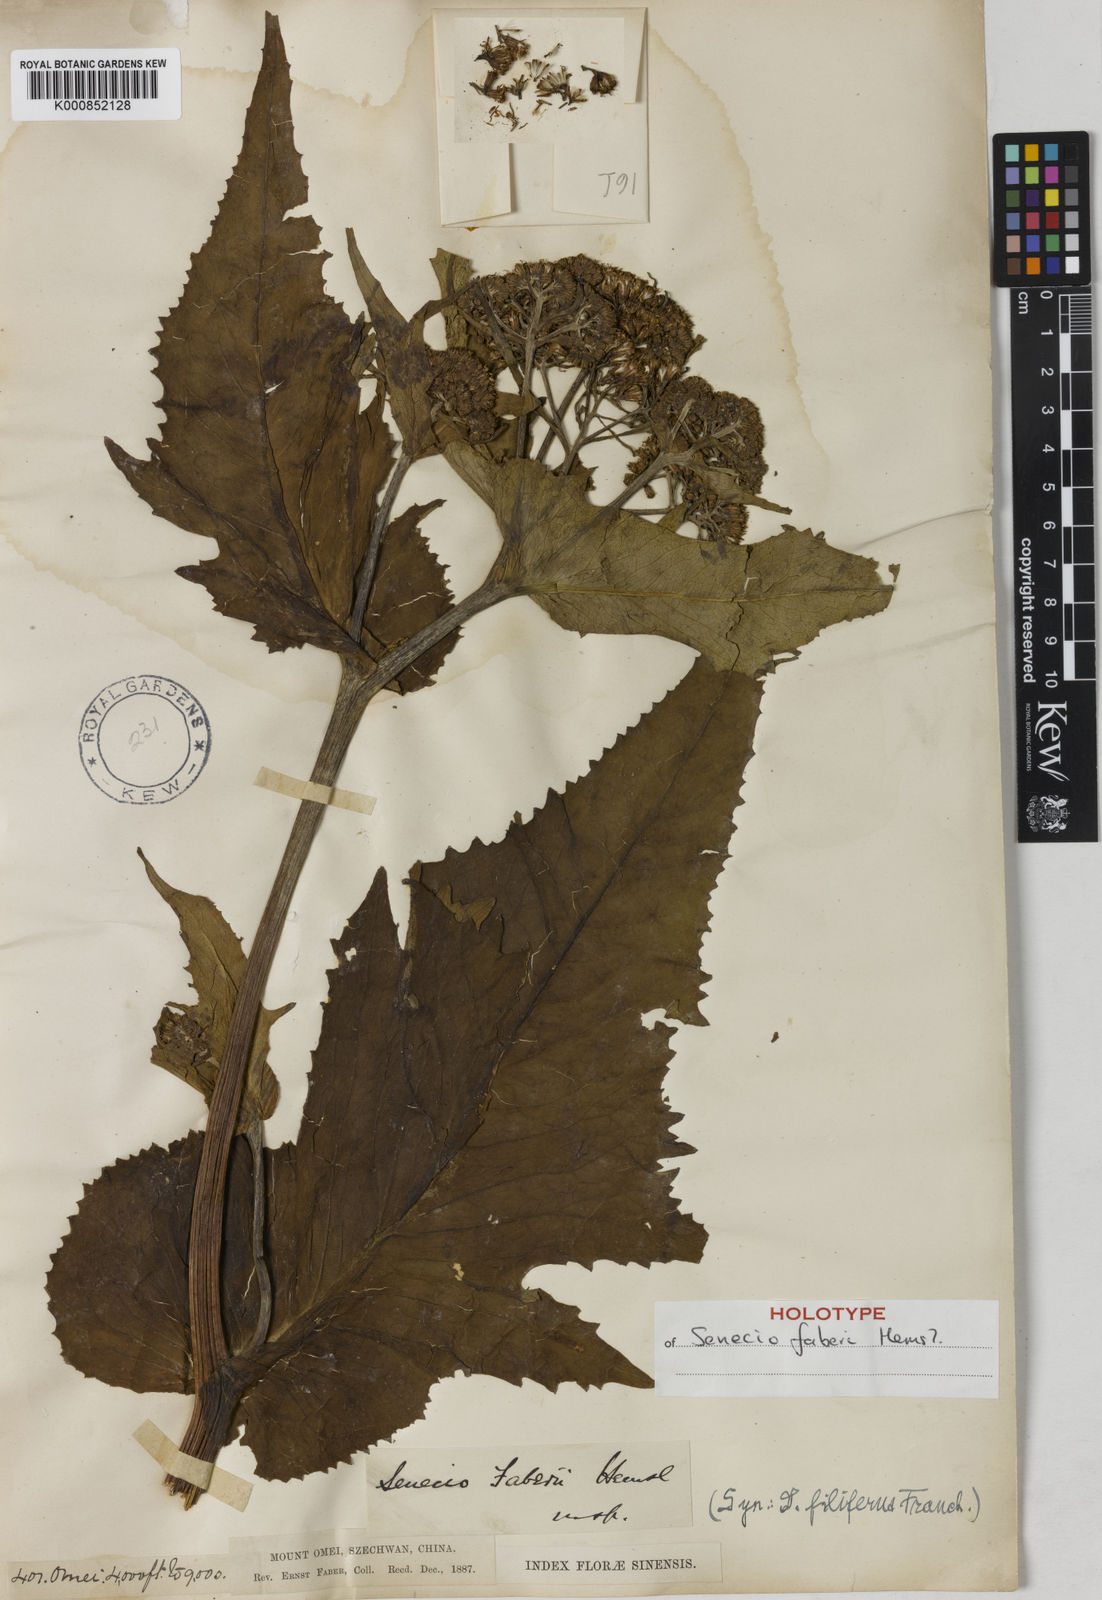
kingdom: Plantae
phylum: Tracheophyta
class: Magnoliopsida
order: Asterales
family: Asteraceae
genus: Senecio
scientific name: Senecio faberi
